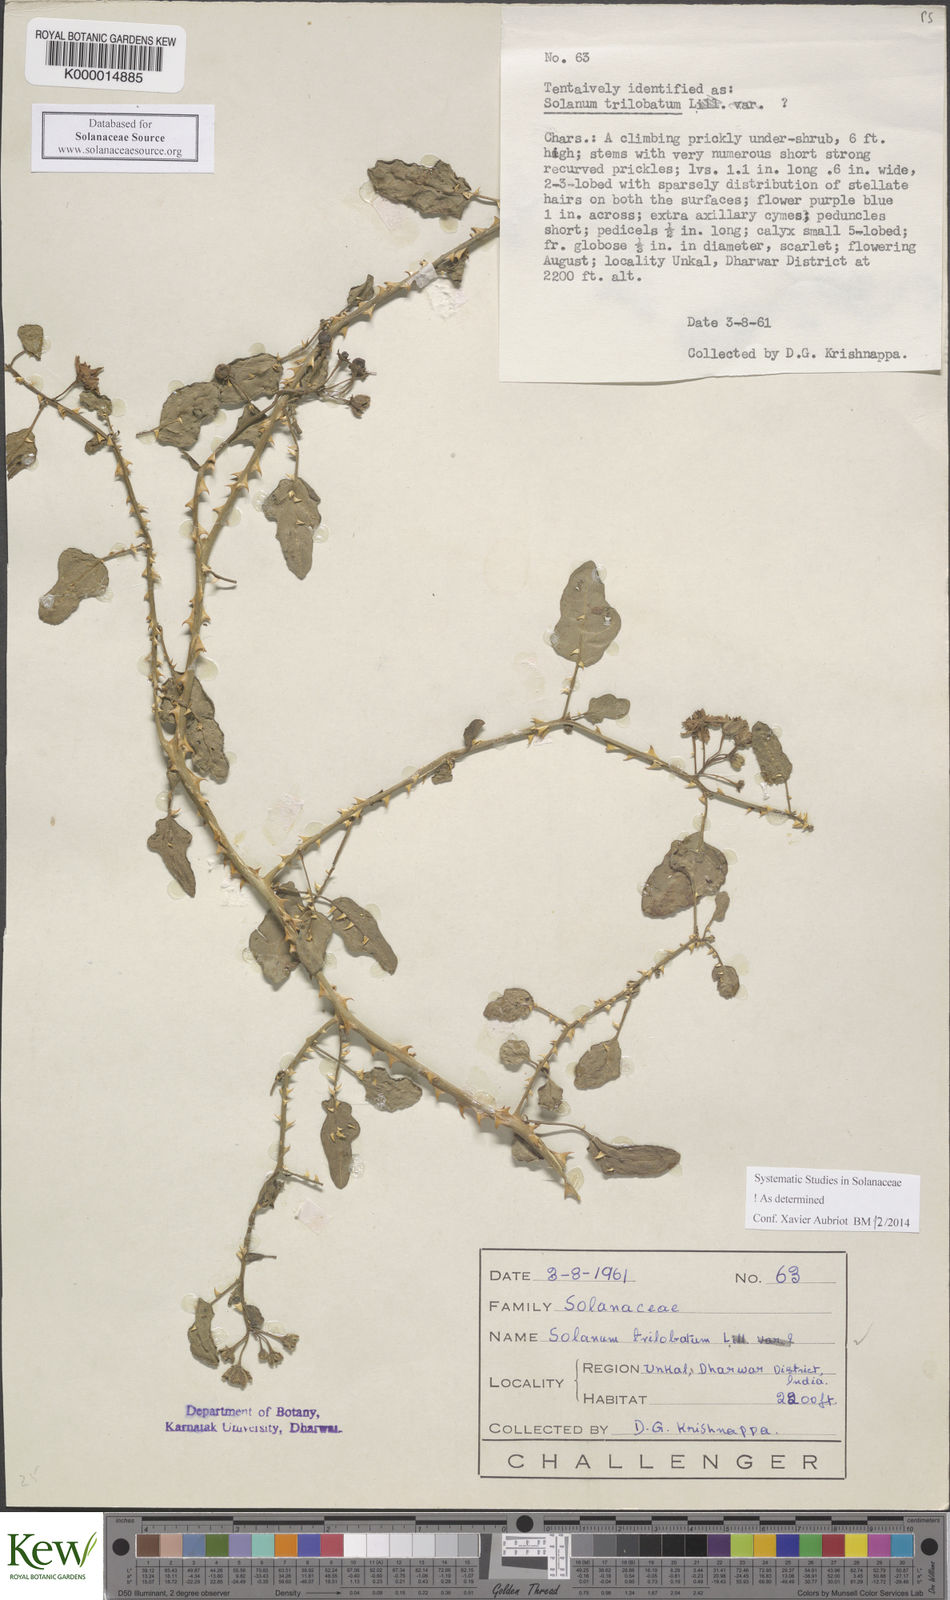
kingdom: Plantae
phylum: Tracheophyta
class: Magnoliopsida
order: Solanales
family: Solanaceae
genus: Solanum
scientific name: Solanum trilobatum
